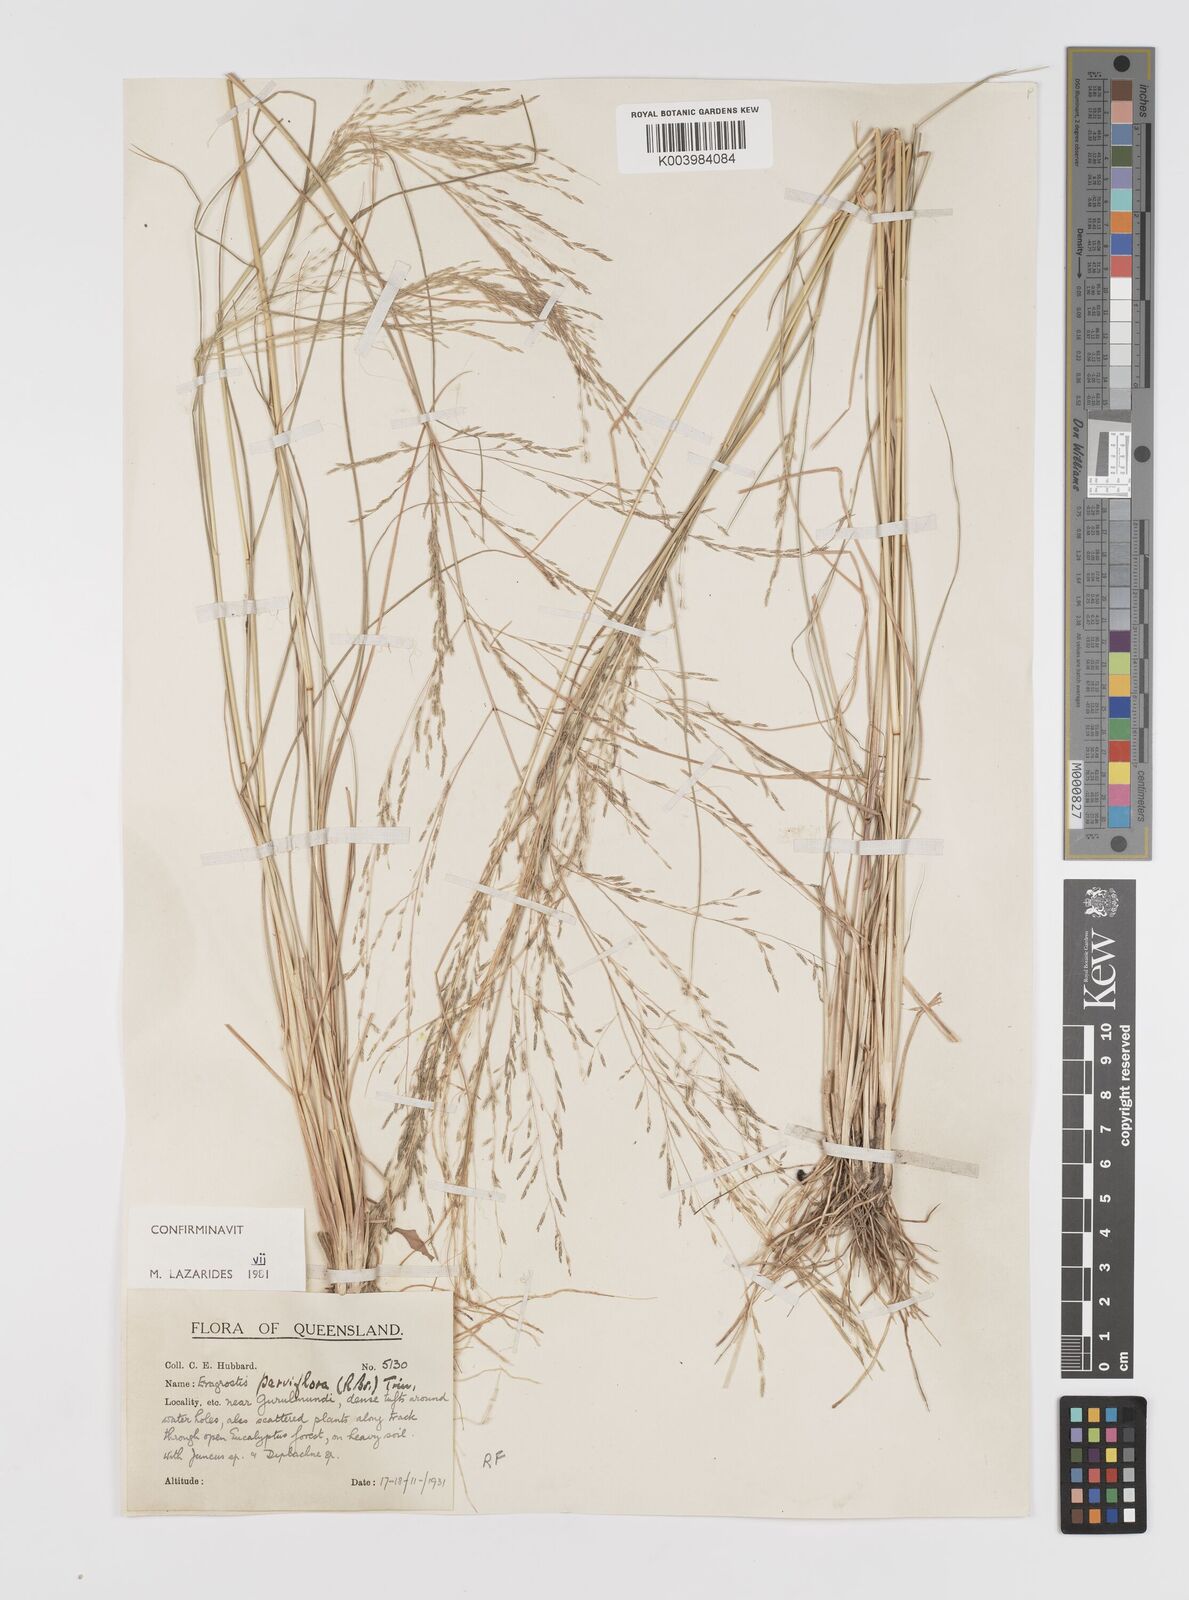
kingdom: Plantae
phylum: Tracheophyta
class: Liliopsida
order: Poales
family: Poaceae
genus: Eragrostis
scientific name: Eragrostis parviflora
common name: Weeping love-grass
